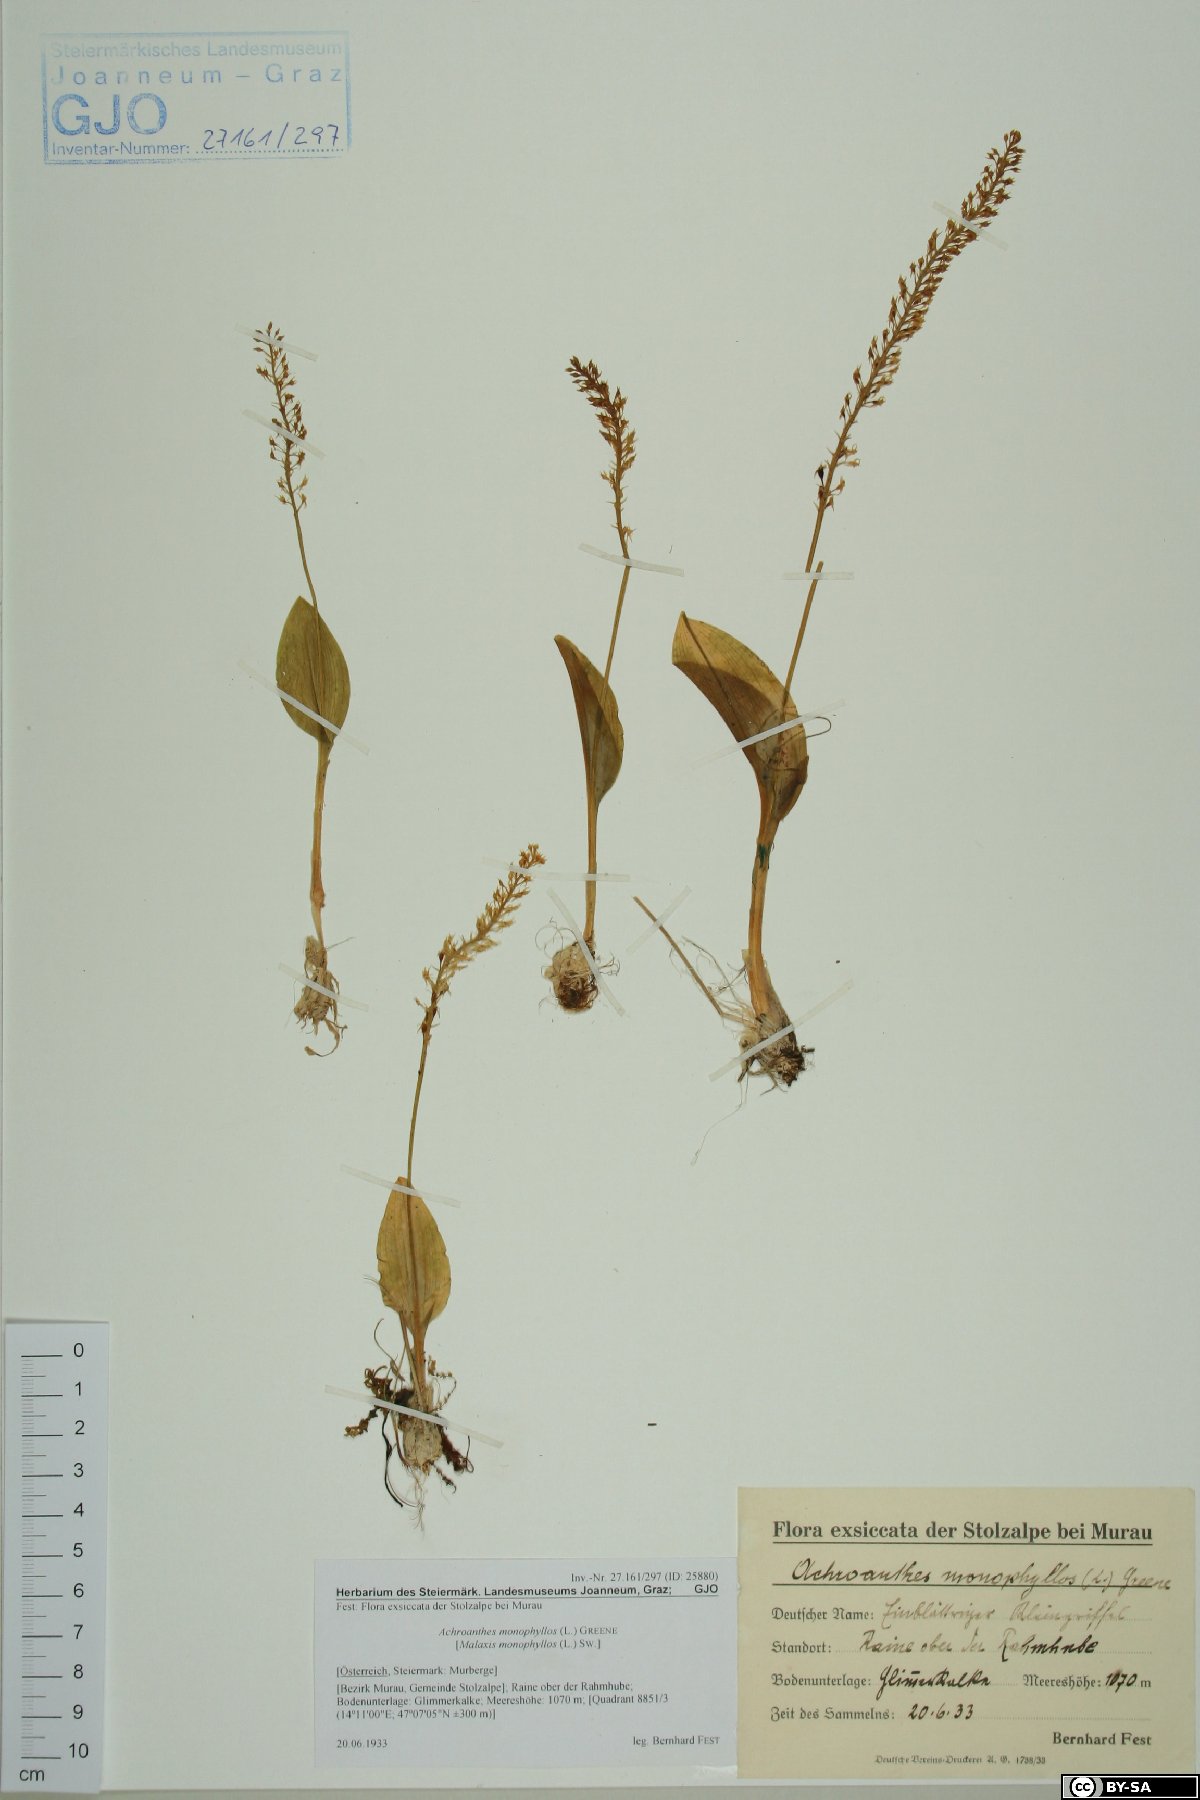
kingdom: Plantae
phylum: Tracheophyta
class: Liliopsida
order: Asparagales
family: Orchidaceae
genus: Malaxis
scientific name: Malaxis monophyllos
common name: White adder's-mouth
